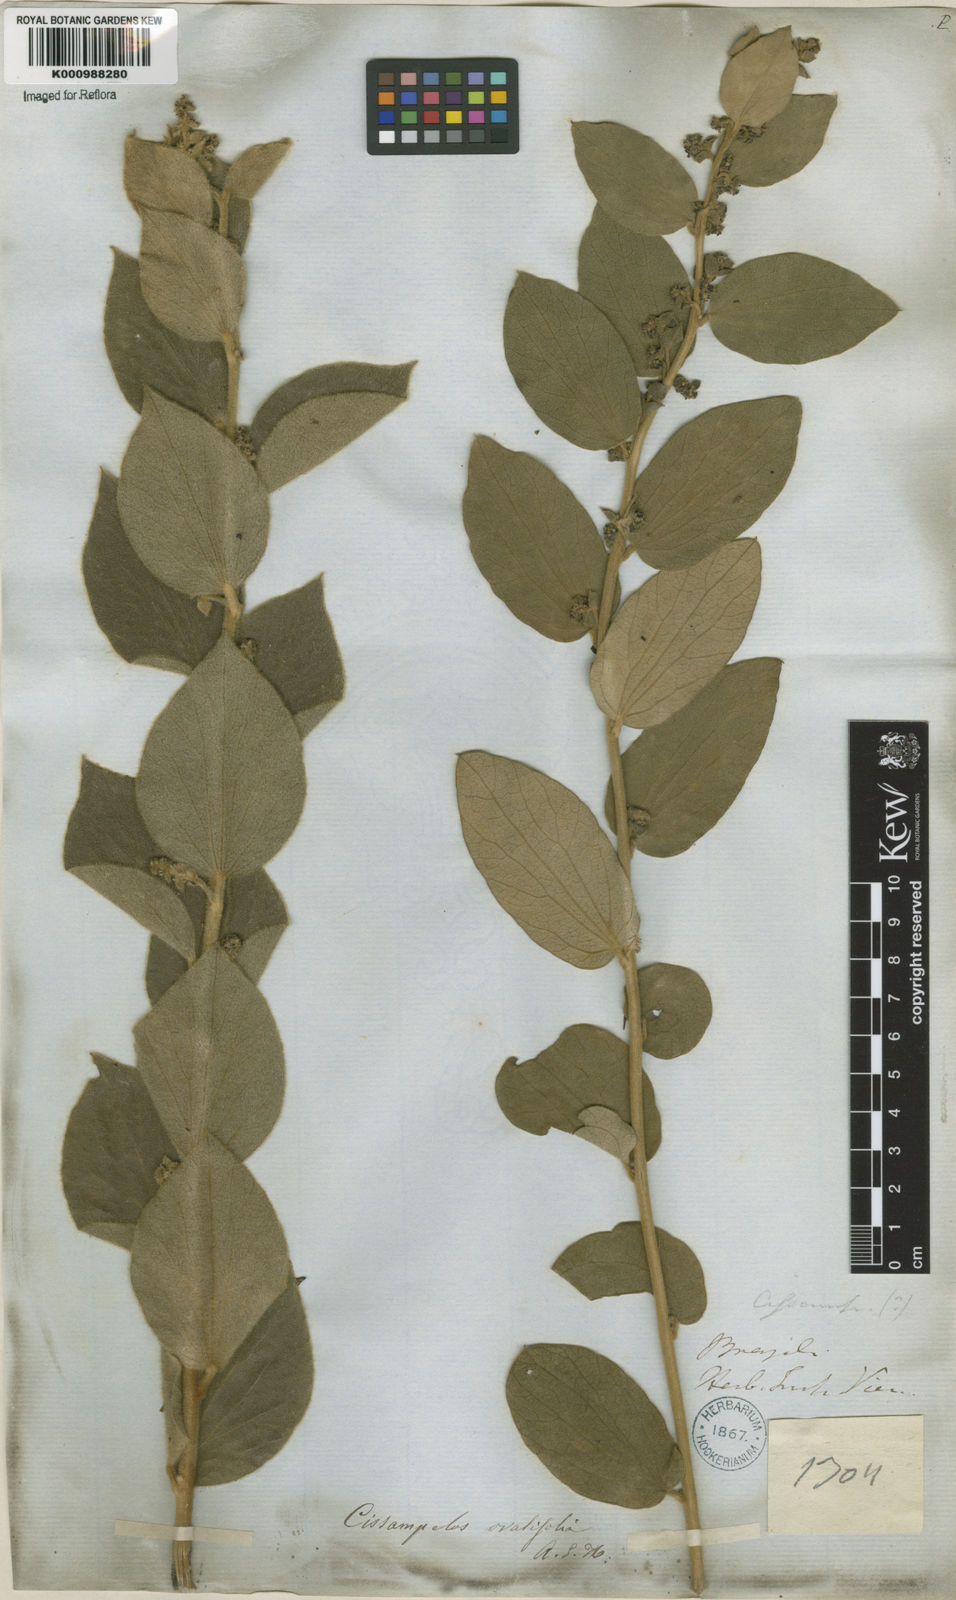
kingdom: Plantae
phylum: Tracheophyta
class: Magnoliopsida
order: Ranunculales
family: Menispermaceae
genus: Cissampelos
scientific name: Cissampelos ovalifolia
